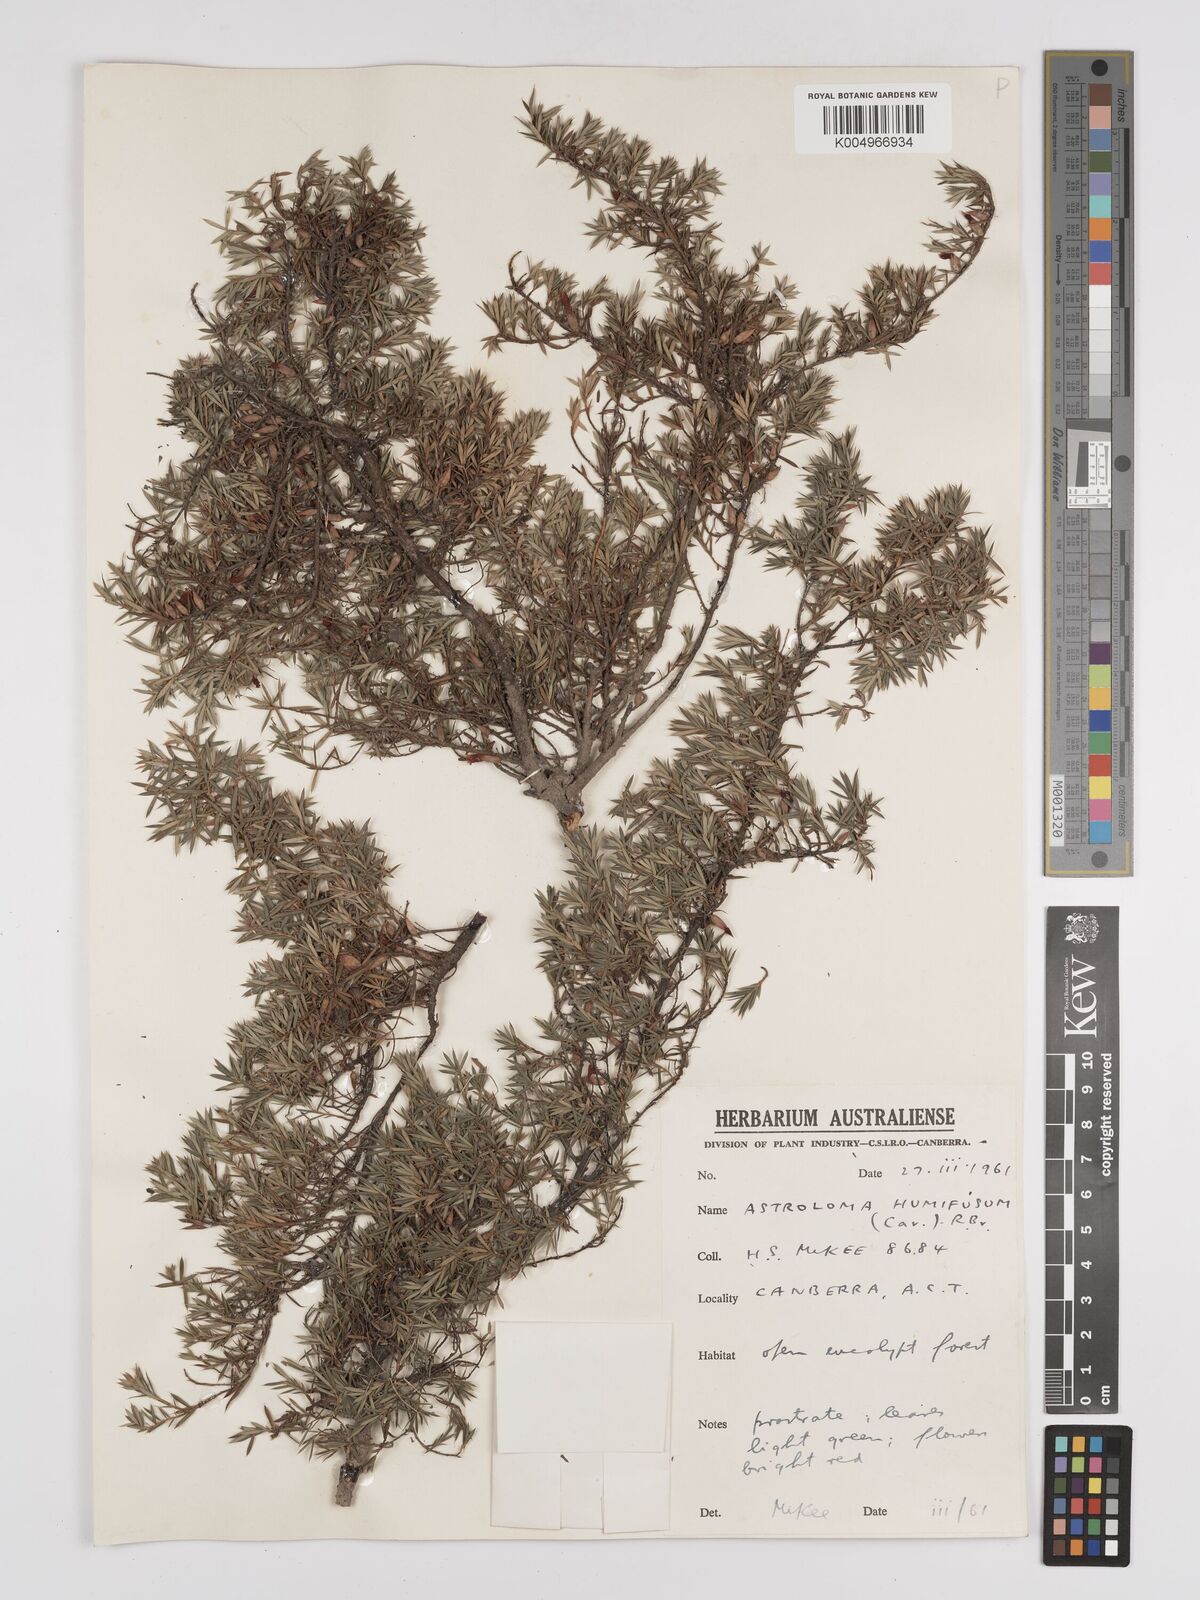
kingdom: Plantae
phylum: Tracheophyta
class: Magnoliopsida
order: Ericales
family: Ericaceae
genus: Styphelia
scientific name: Styphelia humifusa
